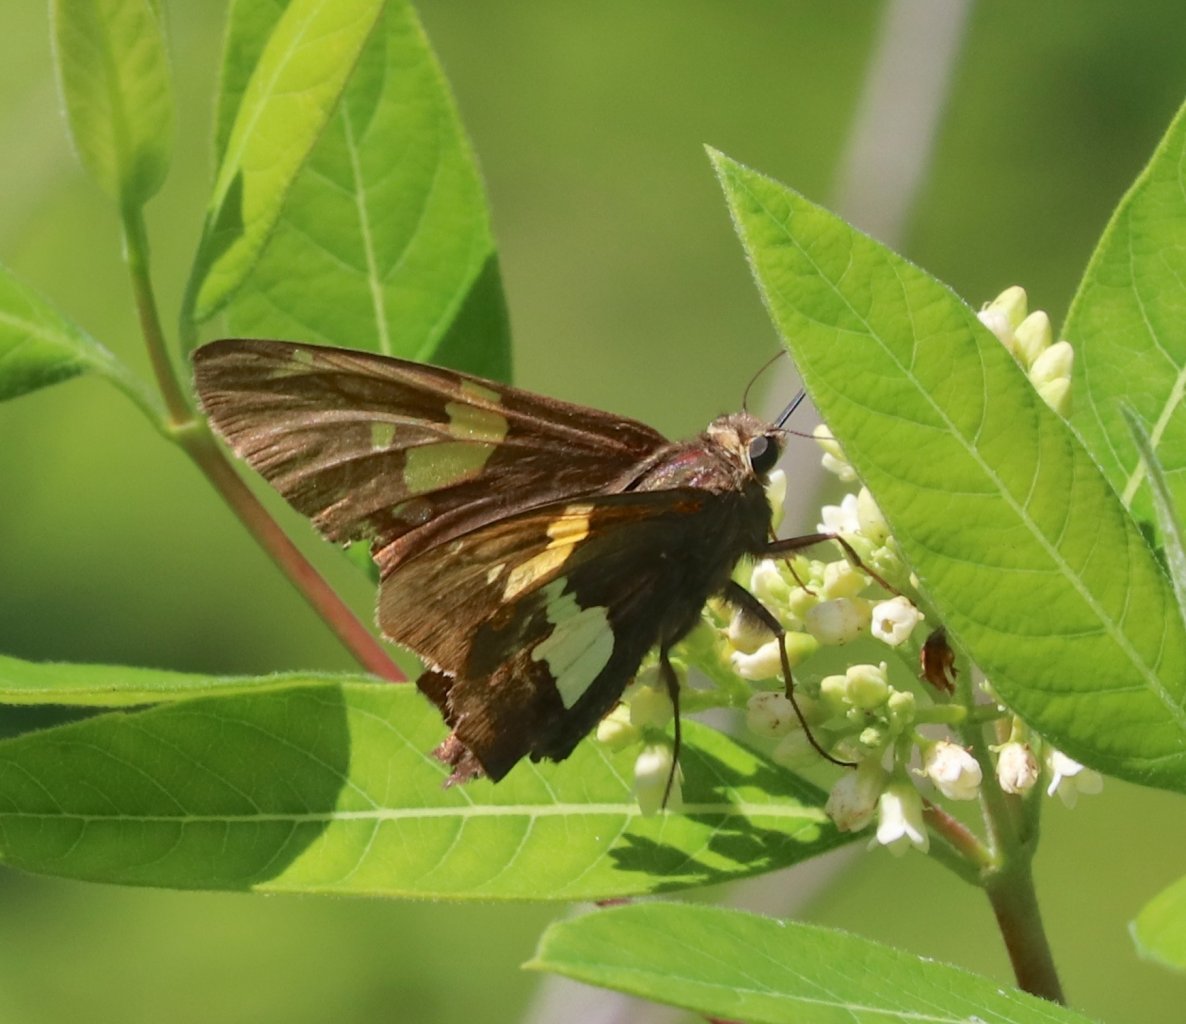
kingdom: Animalia
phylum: Arthropoda
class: Insecta
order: Lepidoptera
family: Hesperiidae
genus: Epargyreus
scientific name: Epargyreus clarus
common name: Silver-spotted Skipper
